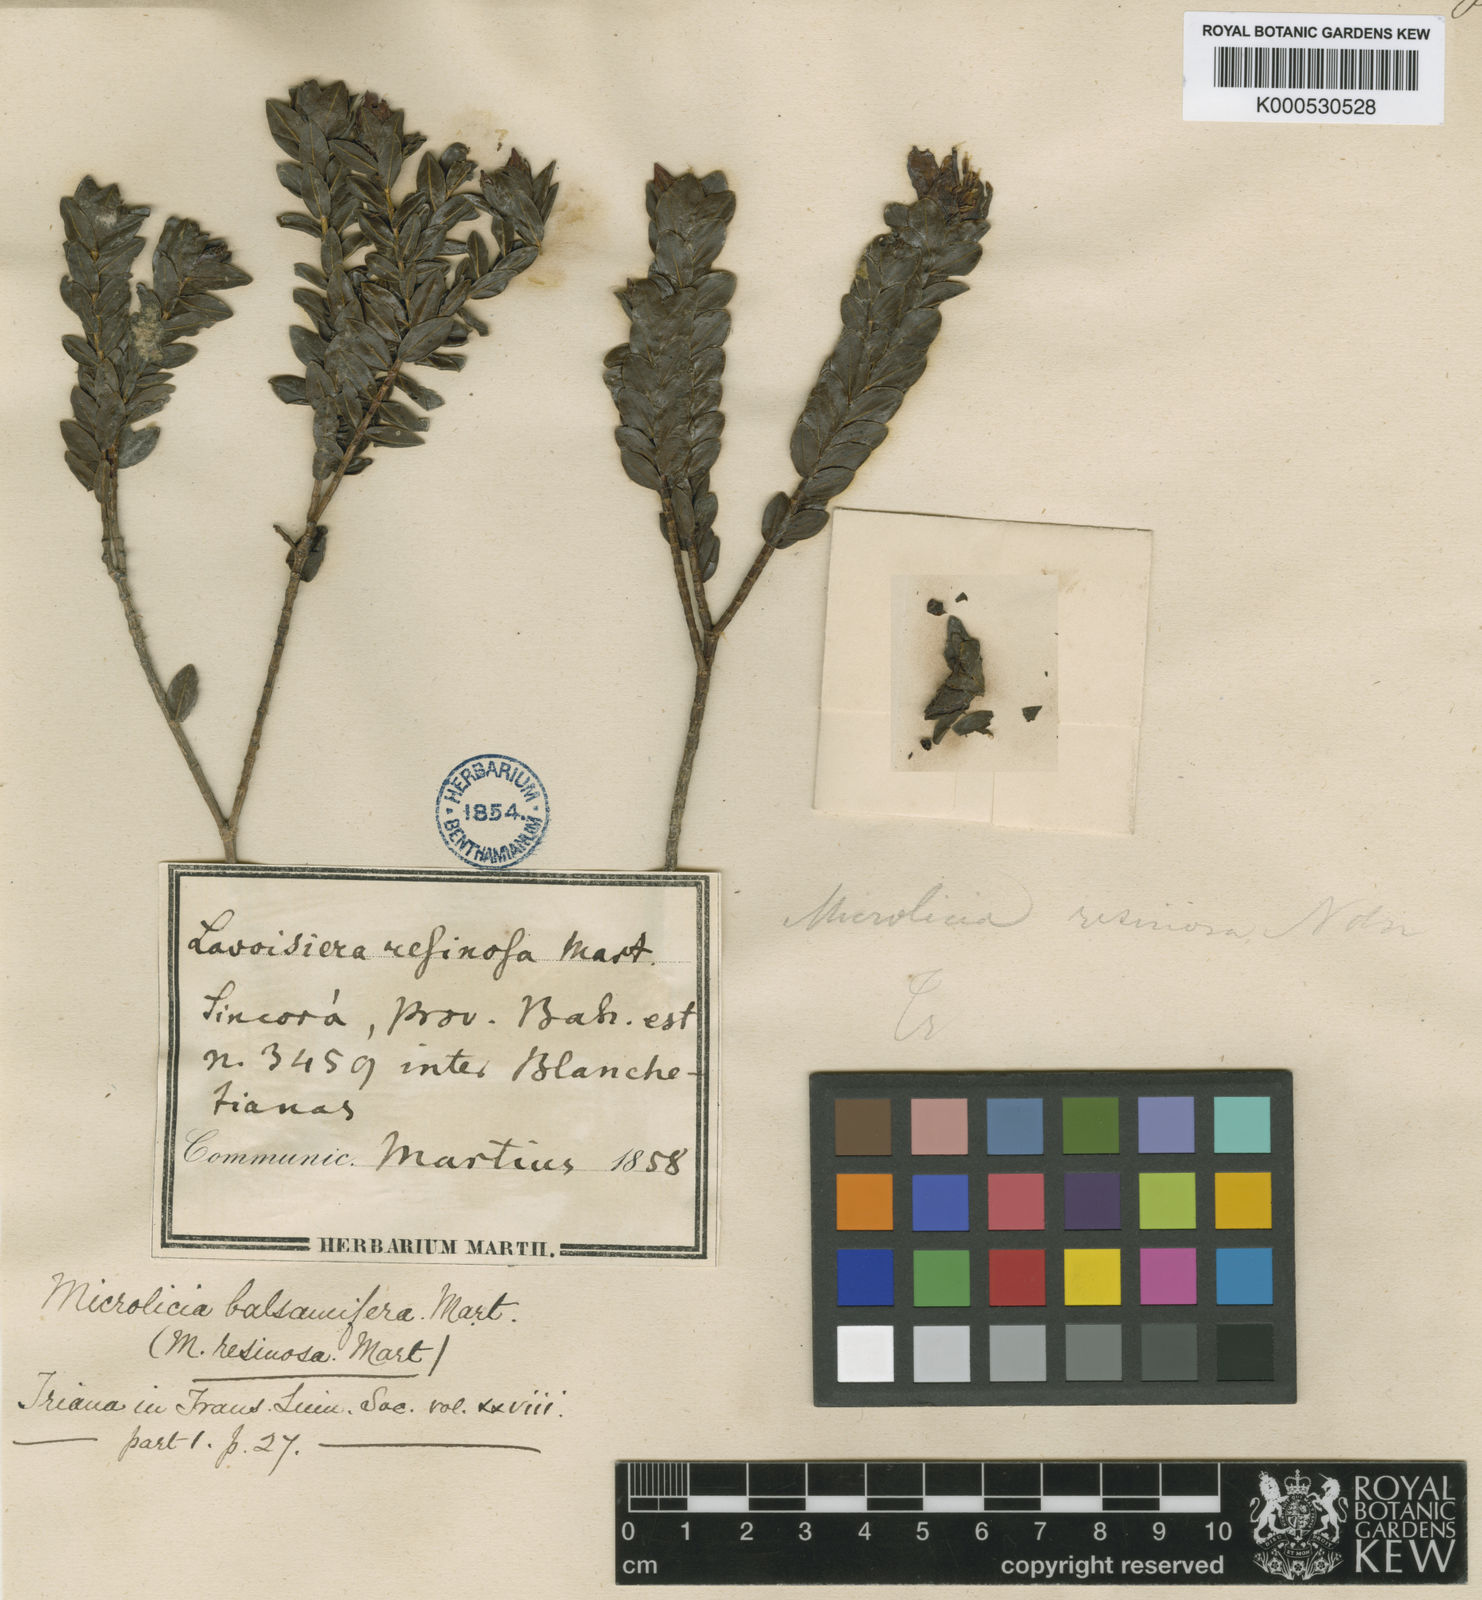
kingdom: Plantae
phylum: Tracheophyta
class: Magnoliopsida
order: Myrtales
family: Melastomataceae
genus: Microlicia
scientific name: Microlicia blanchetiana
